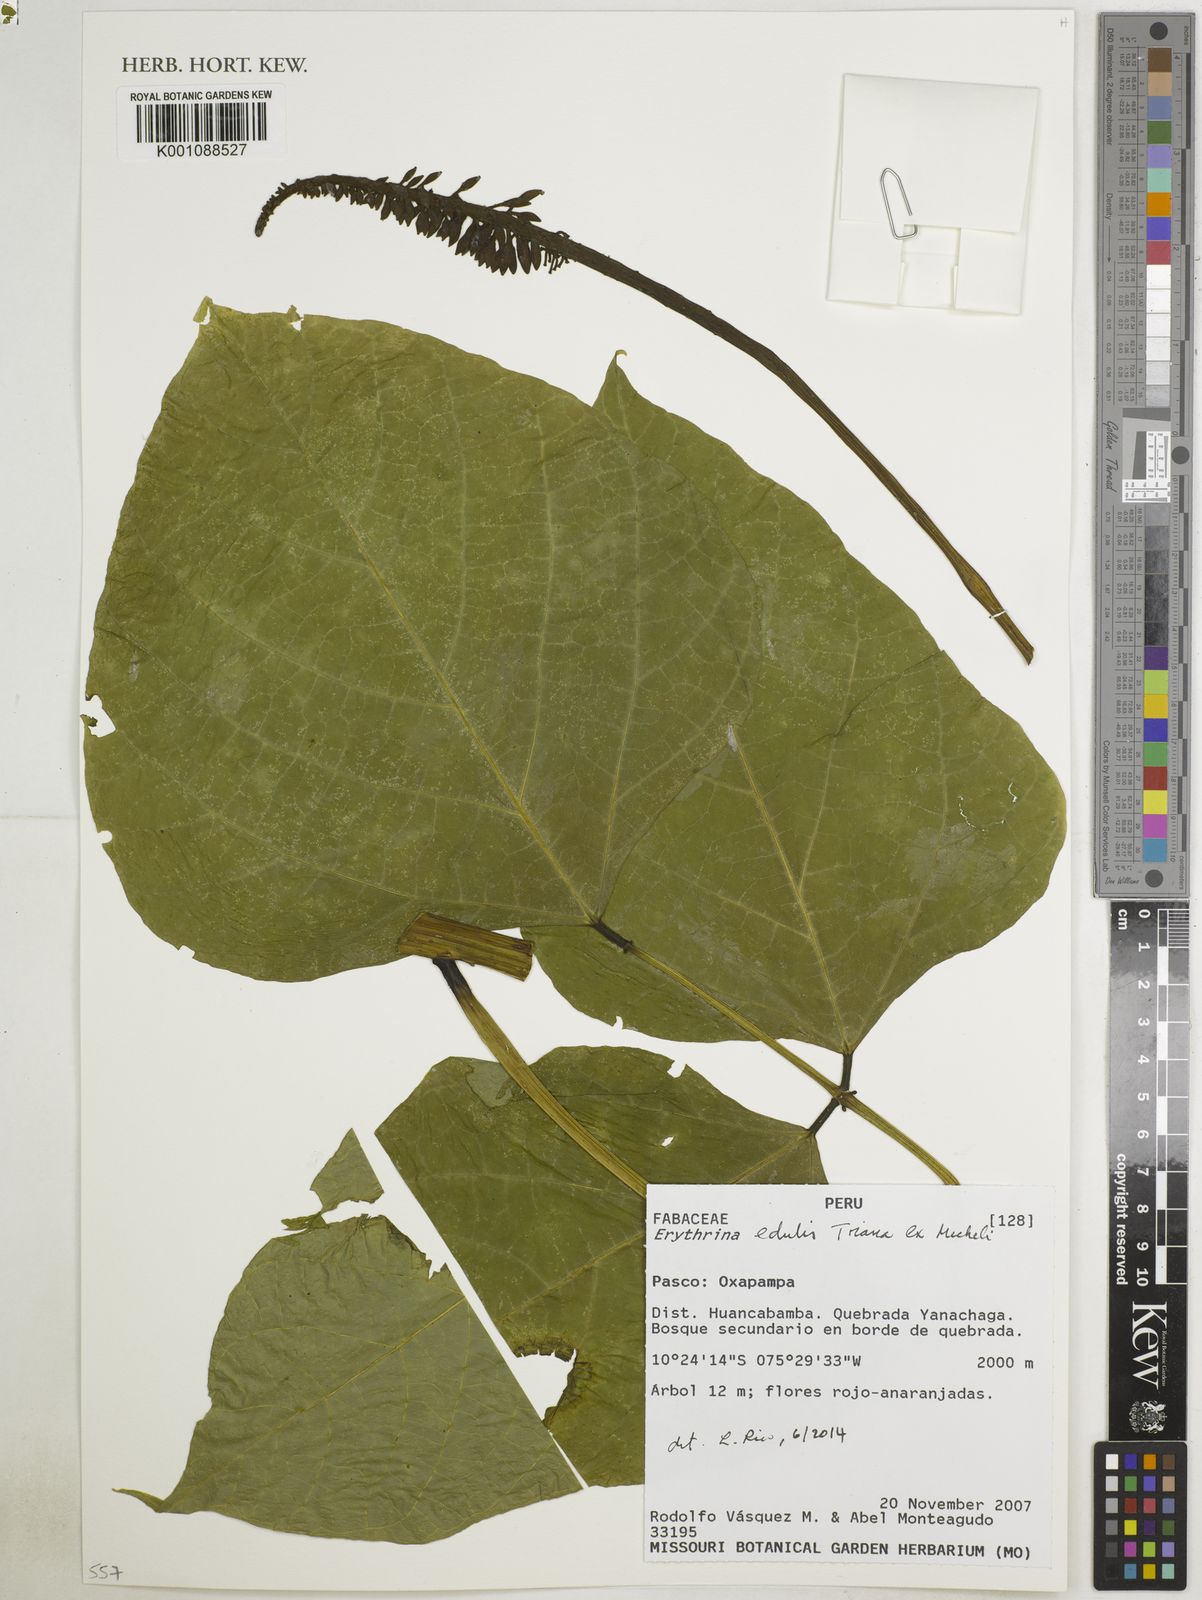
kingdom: Plantae
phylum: Tracheophyta
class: Magnoliopsida
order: Fabales
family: Fabaceae
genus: Erythrina
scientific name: Erythrina edulis
